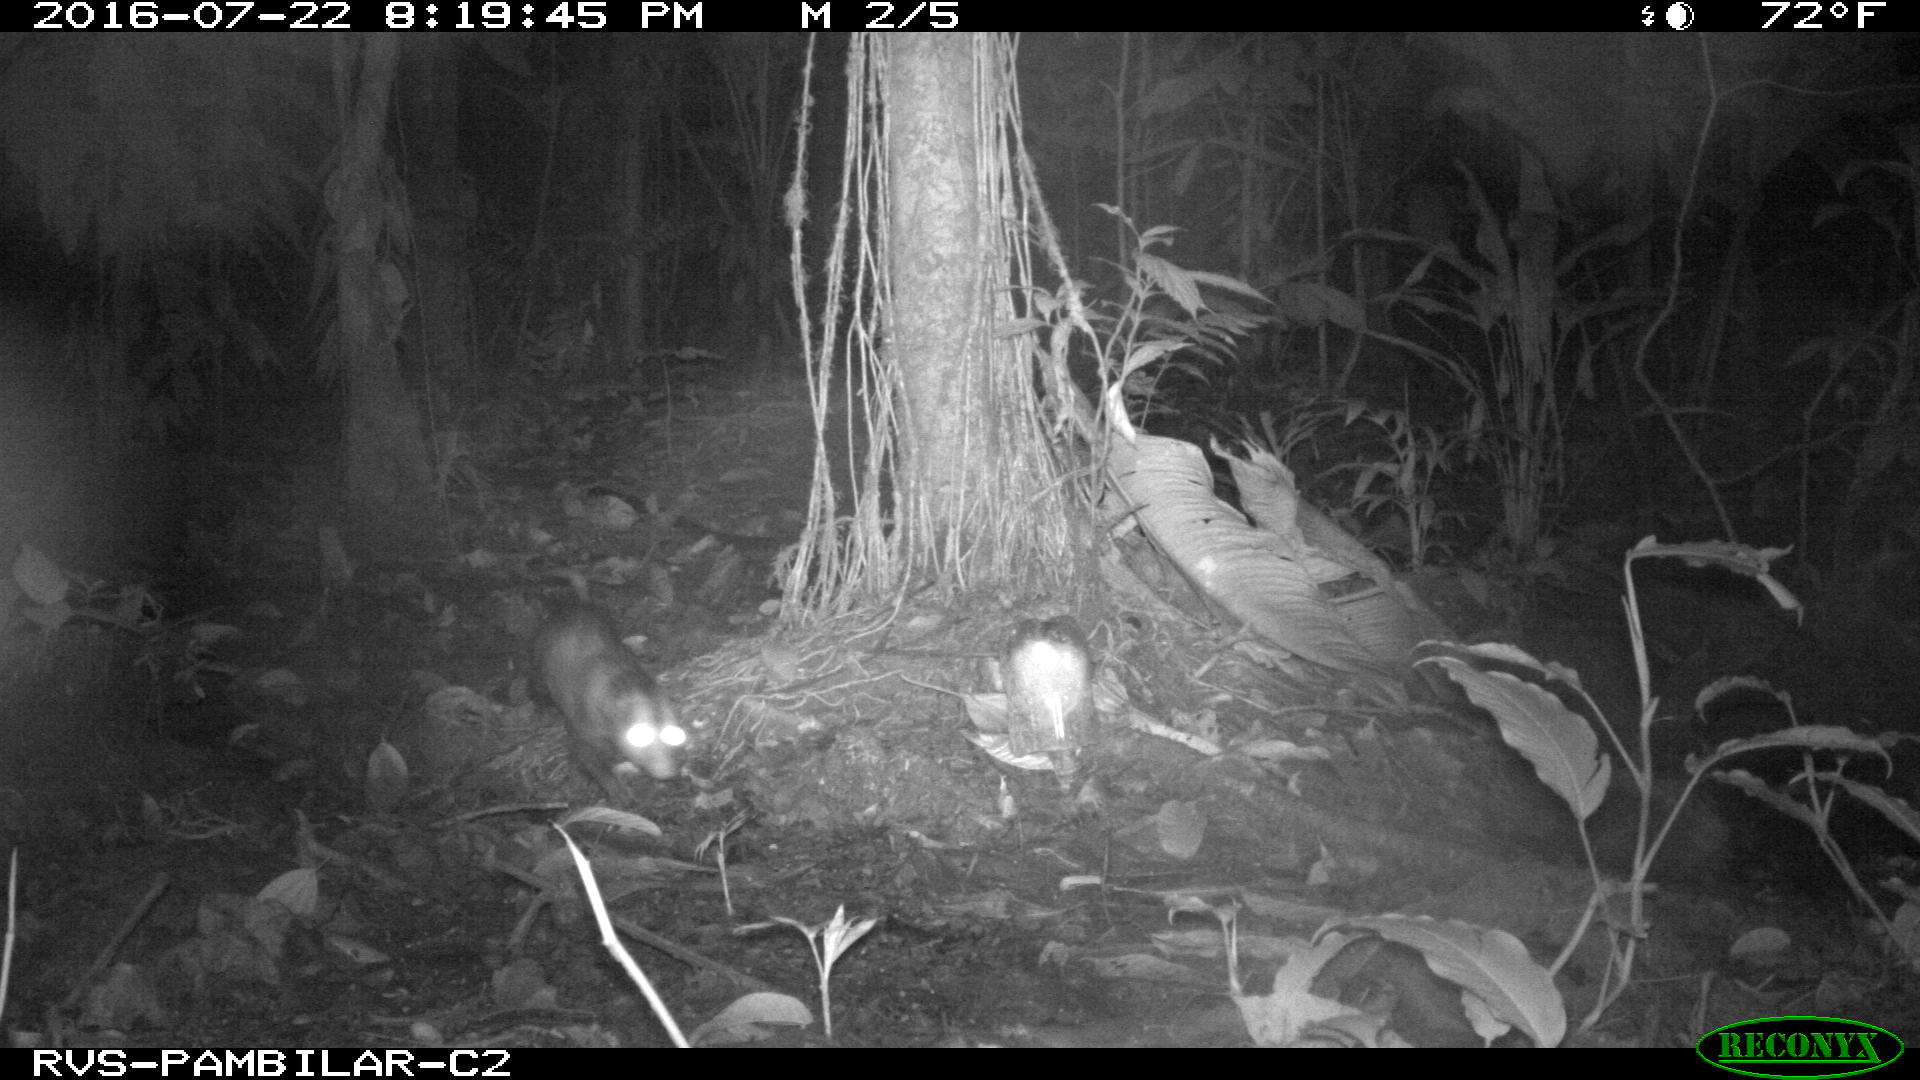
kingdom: Animalia
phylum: Chordata
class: Mammalia
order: Didelphimorphia
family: Didelphidae
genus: Didelphis
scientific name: Didelphis marsupialis
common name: Common opossum
